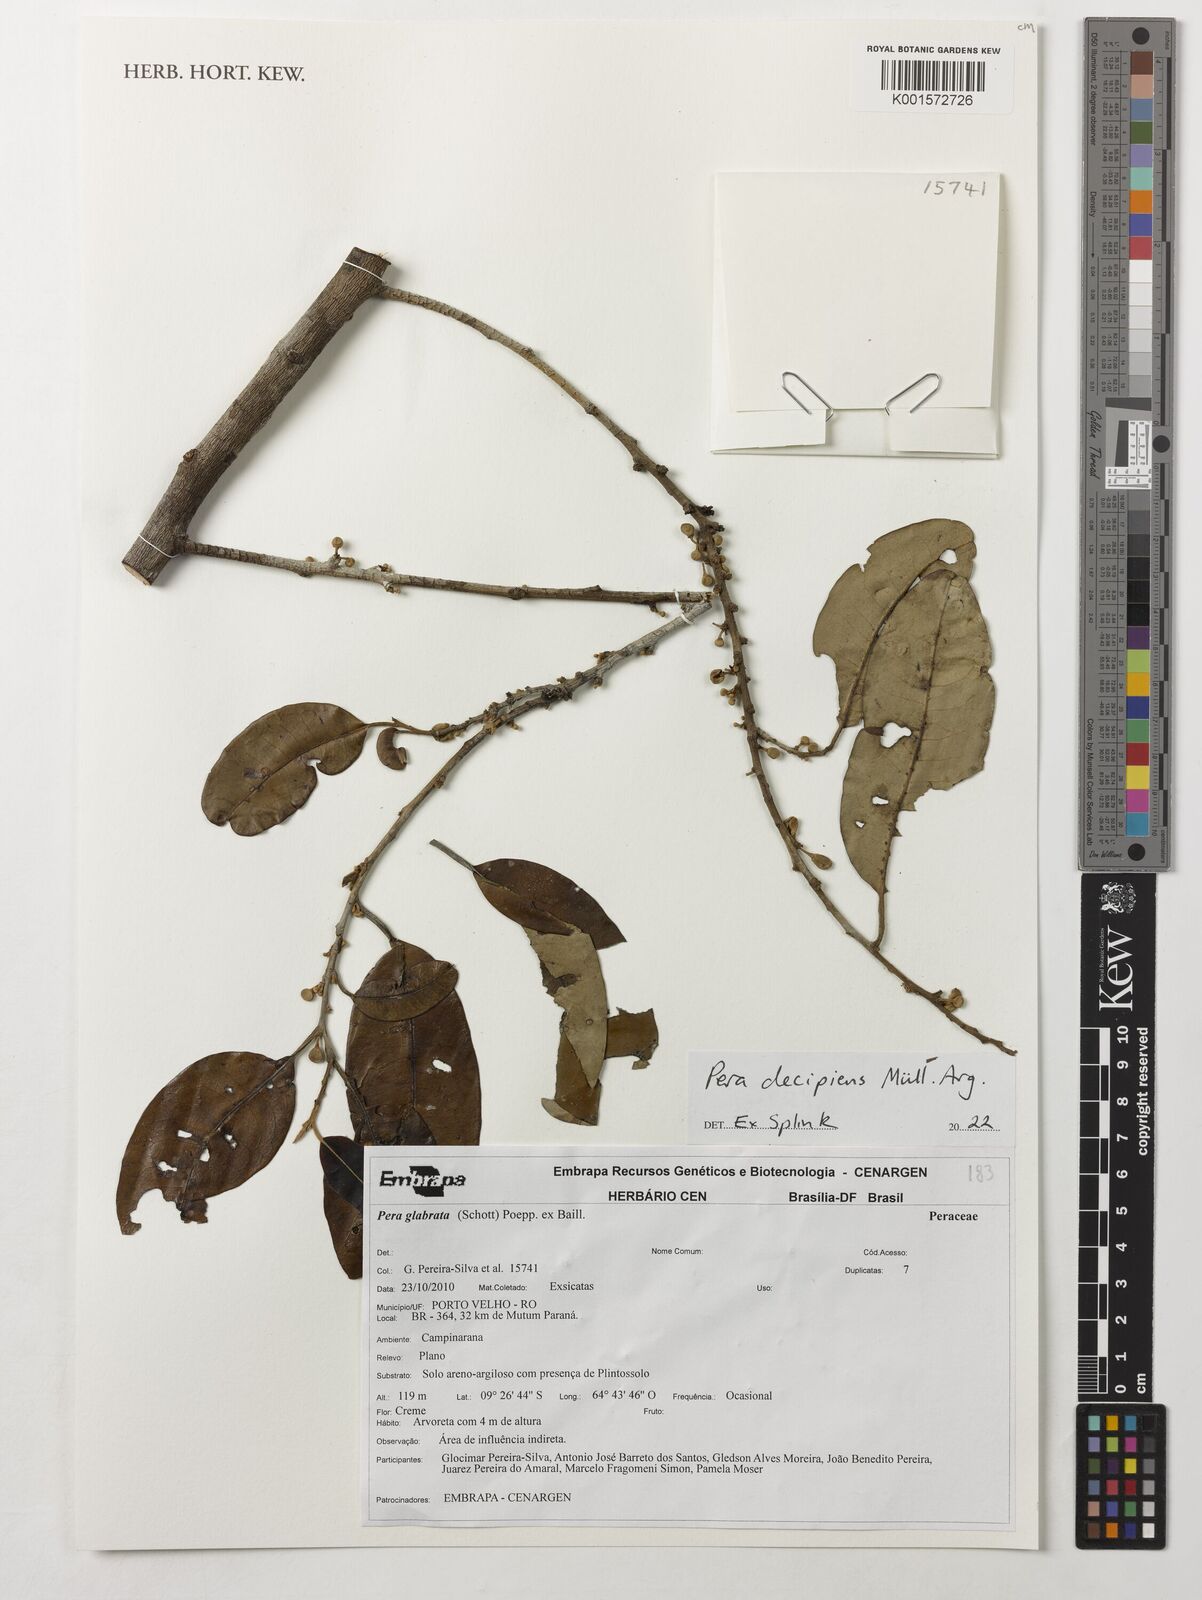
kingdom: Plantae
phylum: Tracheophyta
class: Magnoliopsida
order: Malpighiales
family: Peraceae
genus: Pera
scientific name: Pera decipiens
